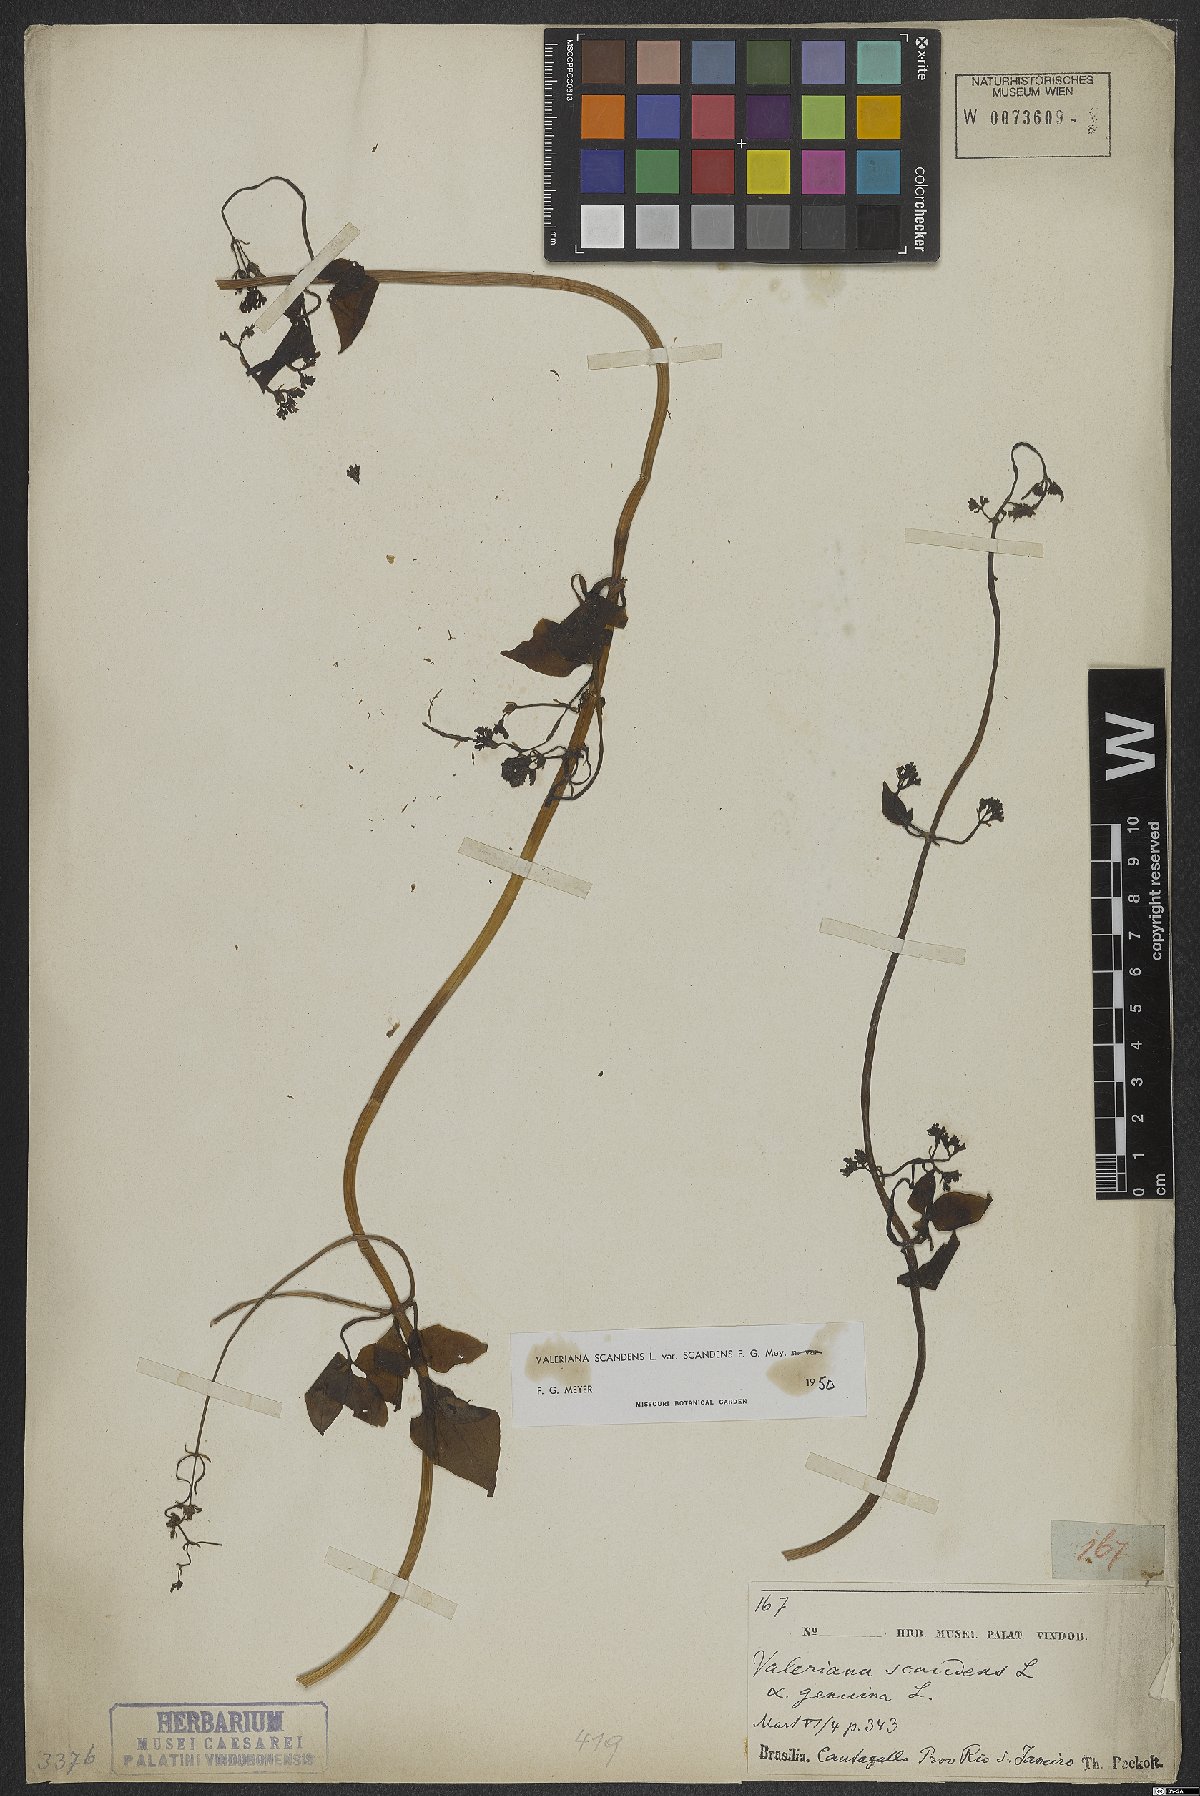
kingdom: Plantae
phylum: Tracheophyta
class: Magnoliopsida
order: Dipsacales
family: Caprifoliaceae
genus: Valeriana
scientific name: Valeriana scandens
